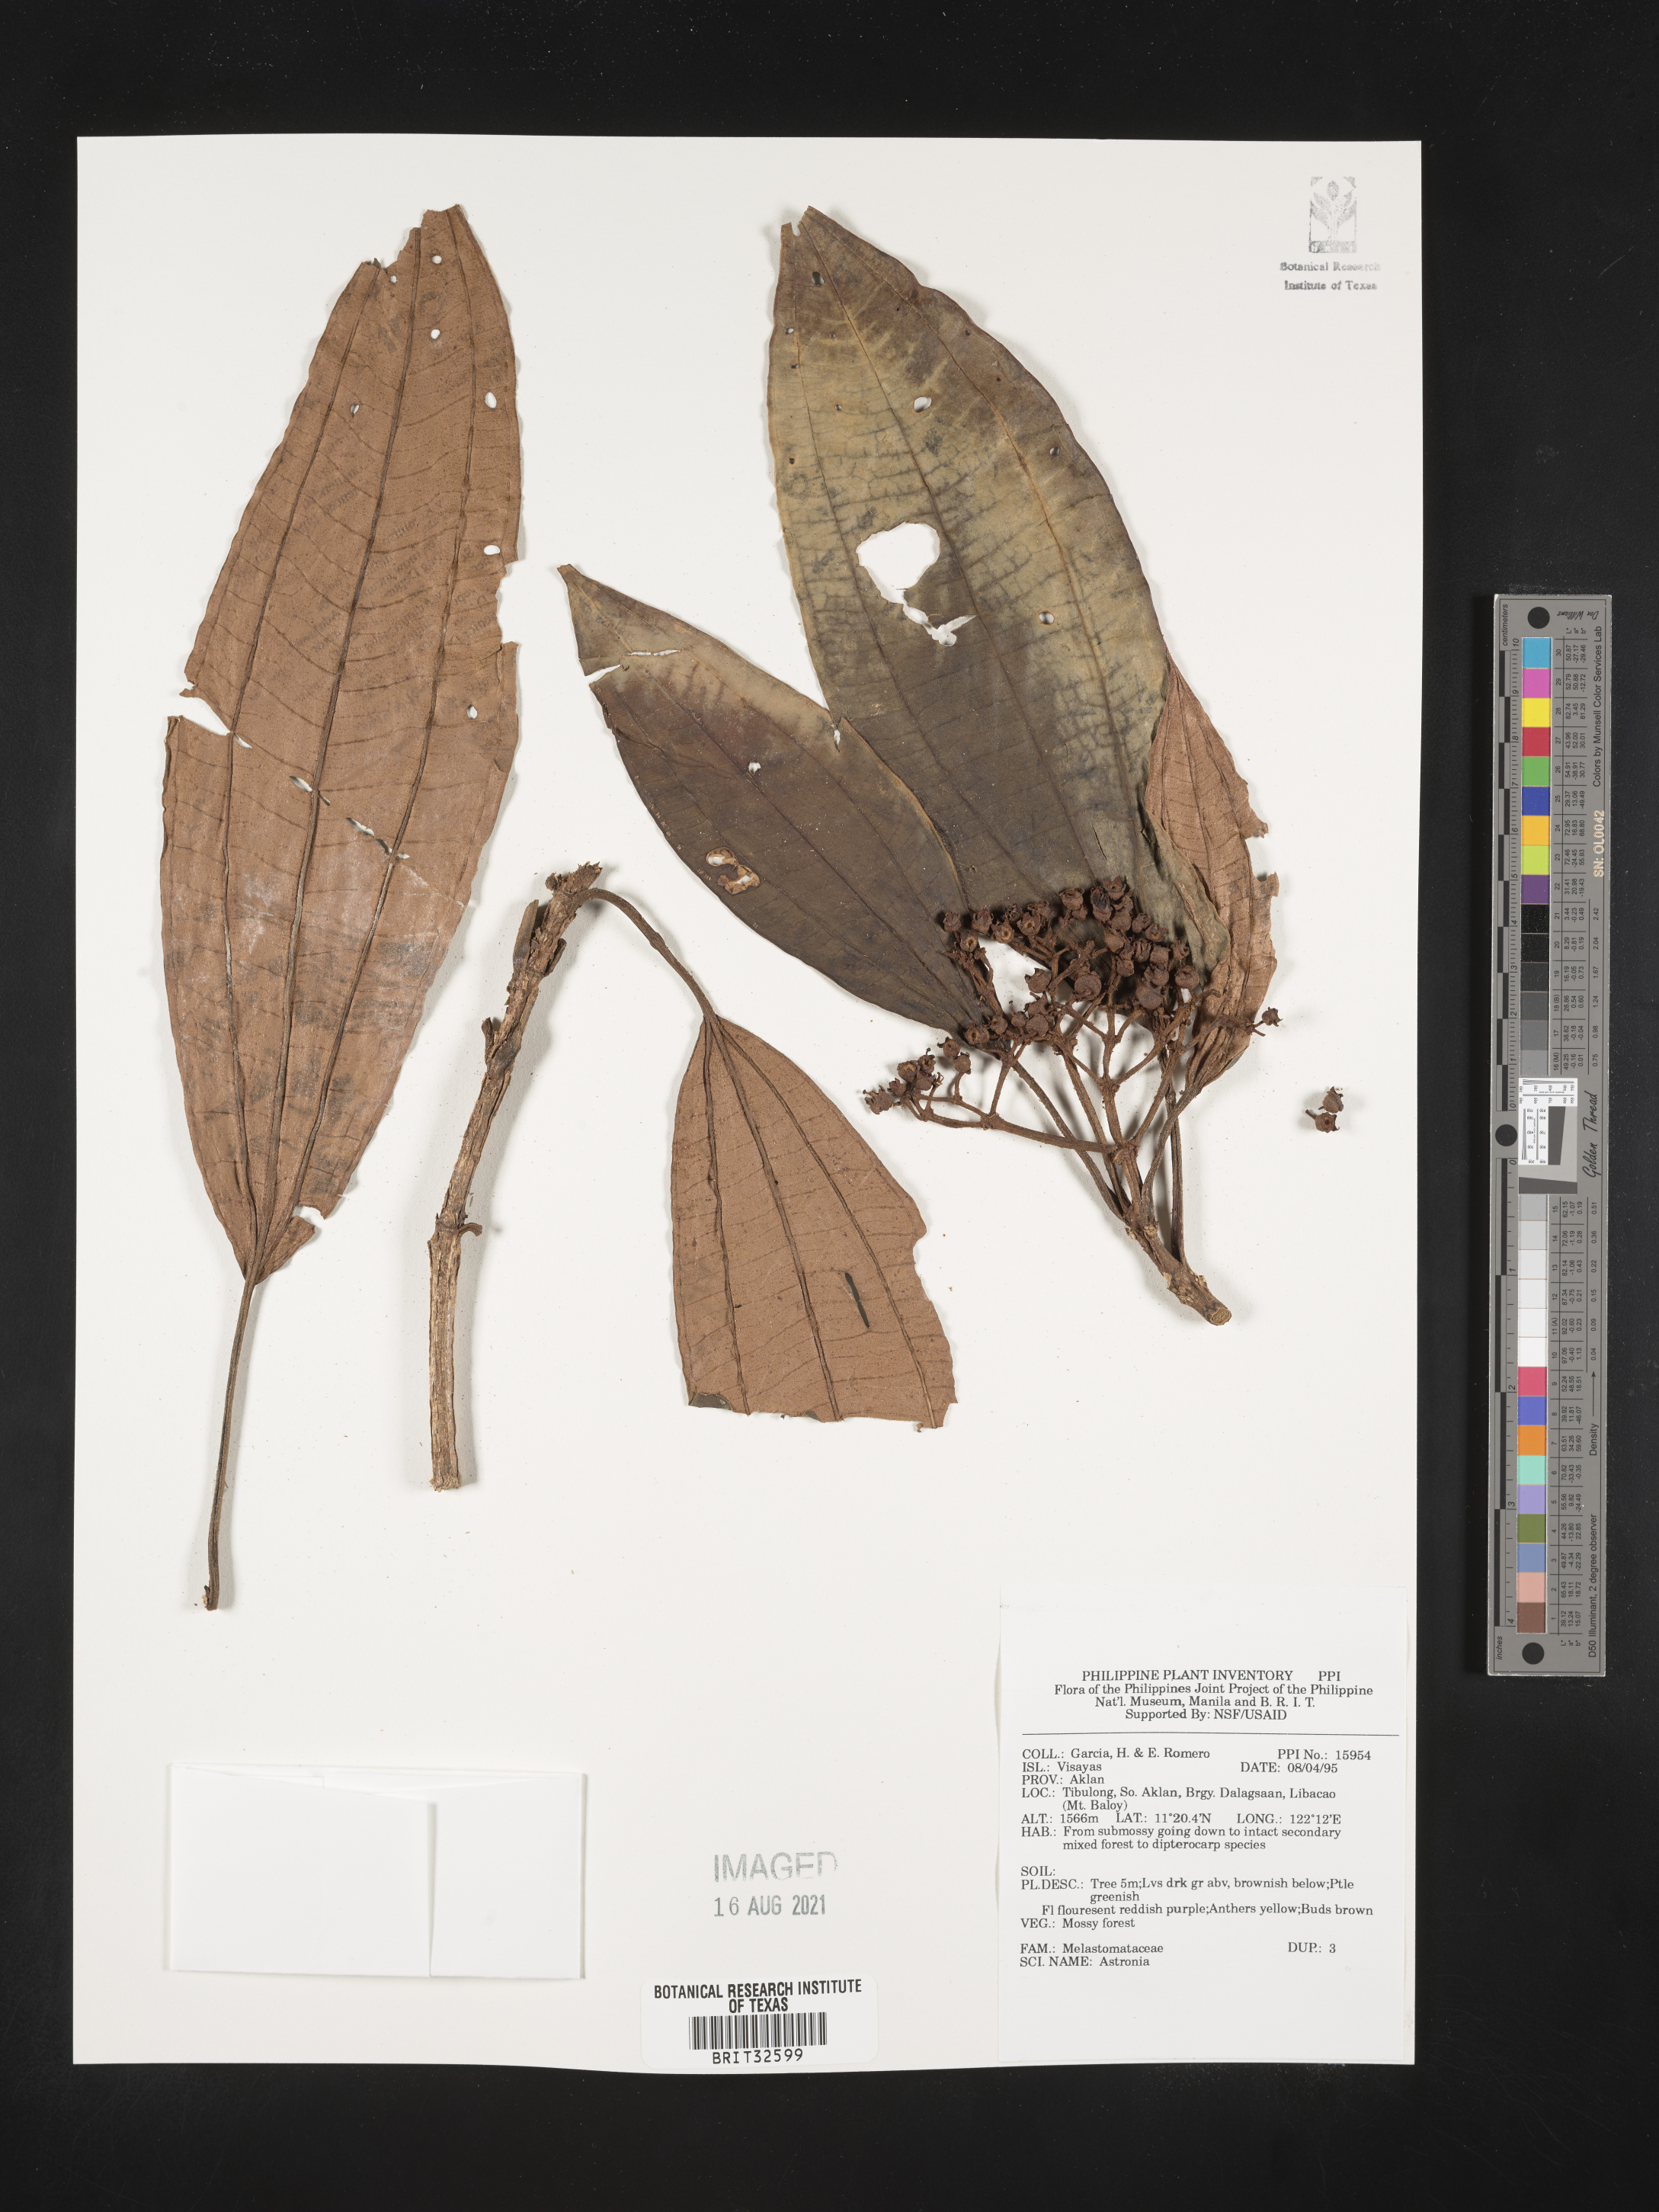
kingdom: Plantae
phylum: Tracheophyta
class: Magnoliopsida
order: Myrtales
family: Melastomataceae
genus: Astronia
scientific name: Astronia
